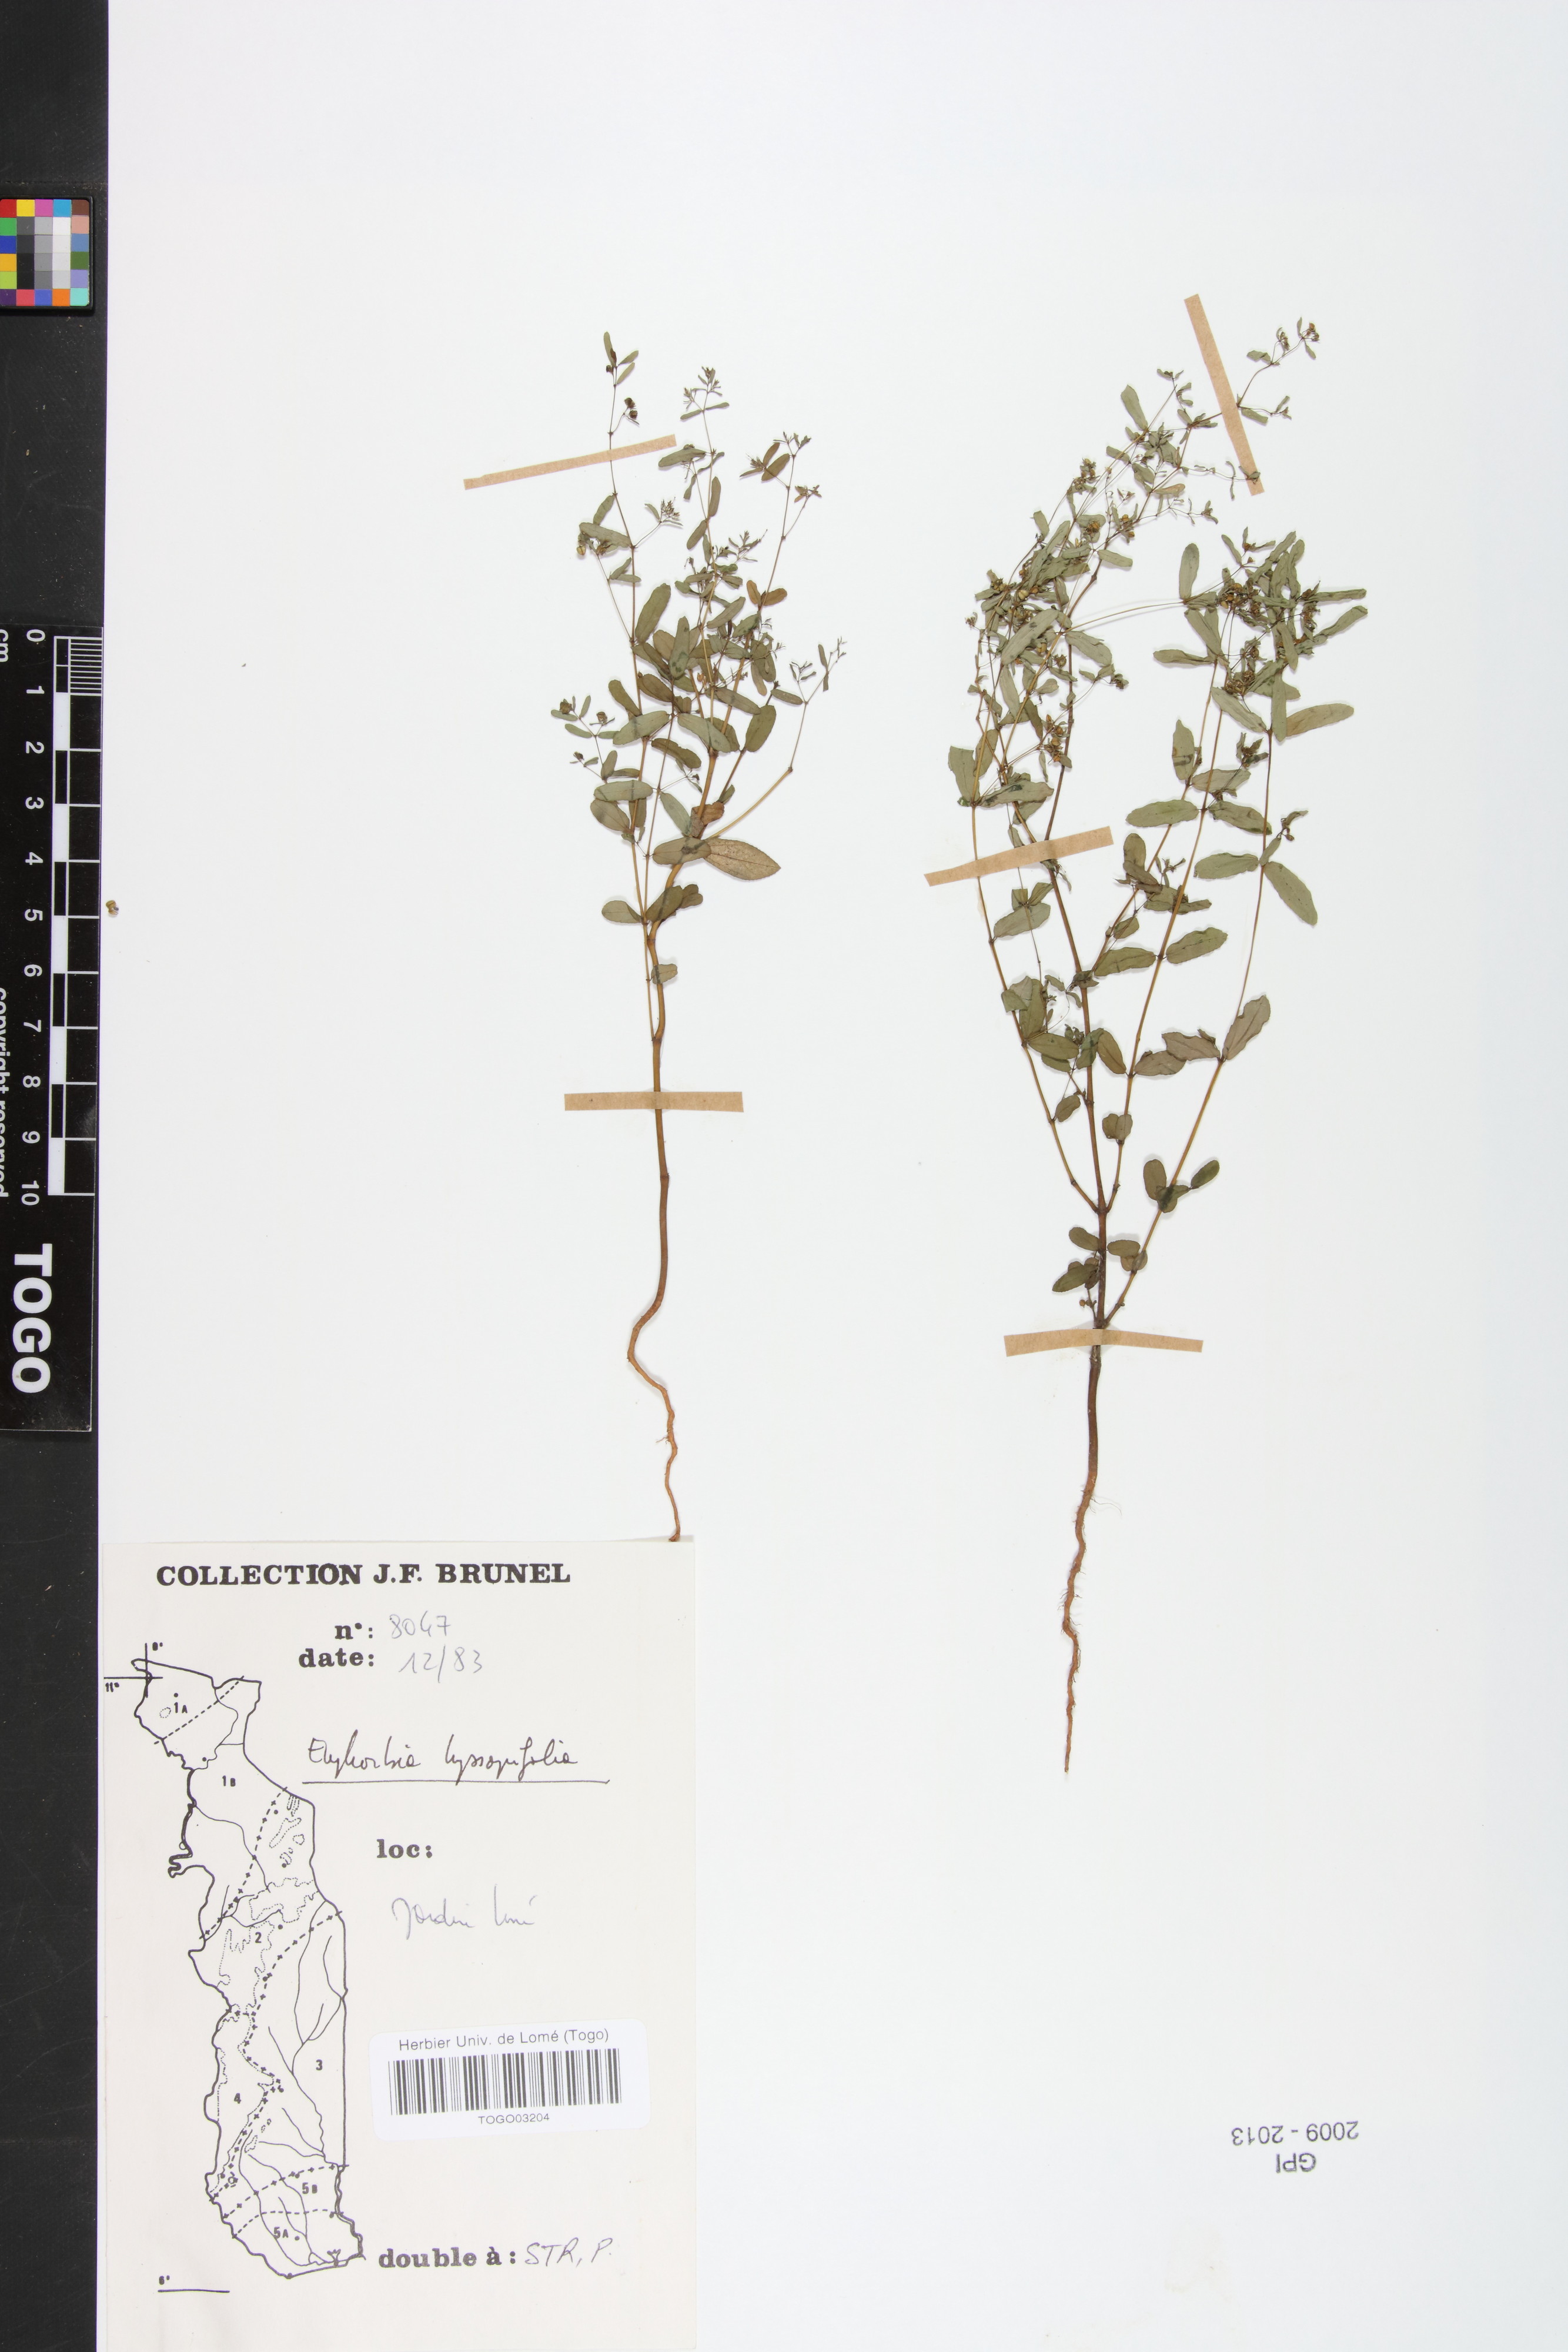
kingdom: Plantae
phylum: Tracheophyta
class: Magnoliopsida
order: Malpighiales
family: Euphorbiaceae
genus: Euphorbia
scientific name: Euphorbia hyssopifolia
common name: Hyssopleaf sandmat
